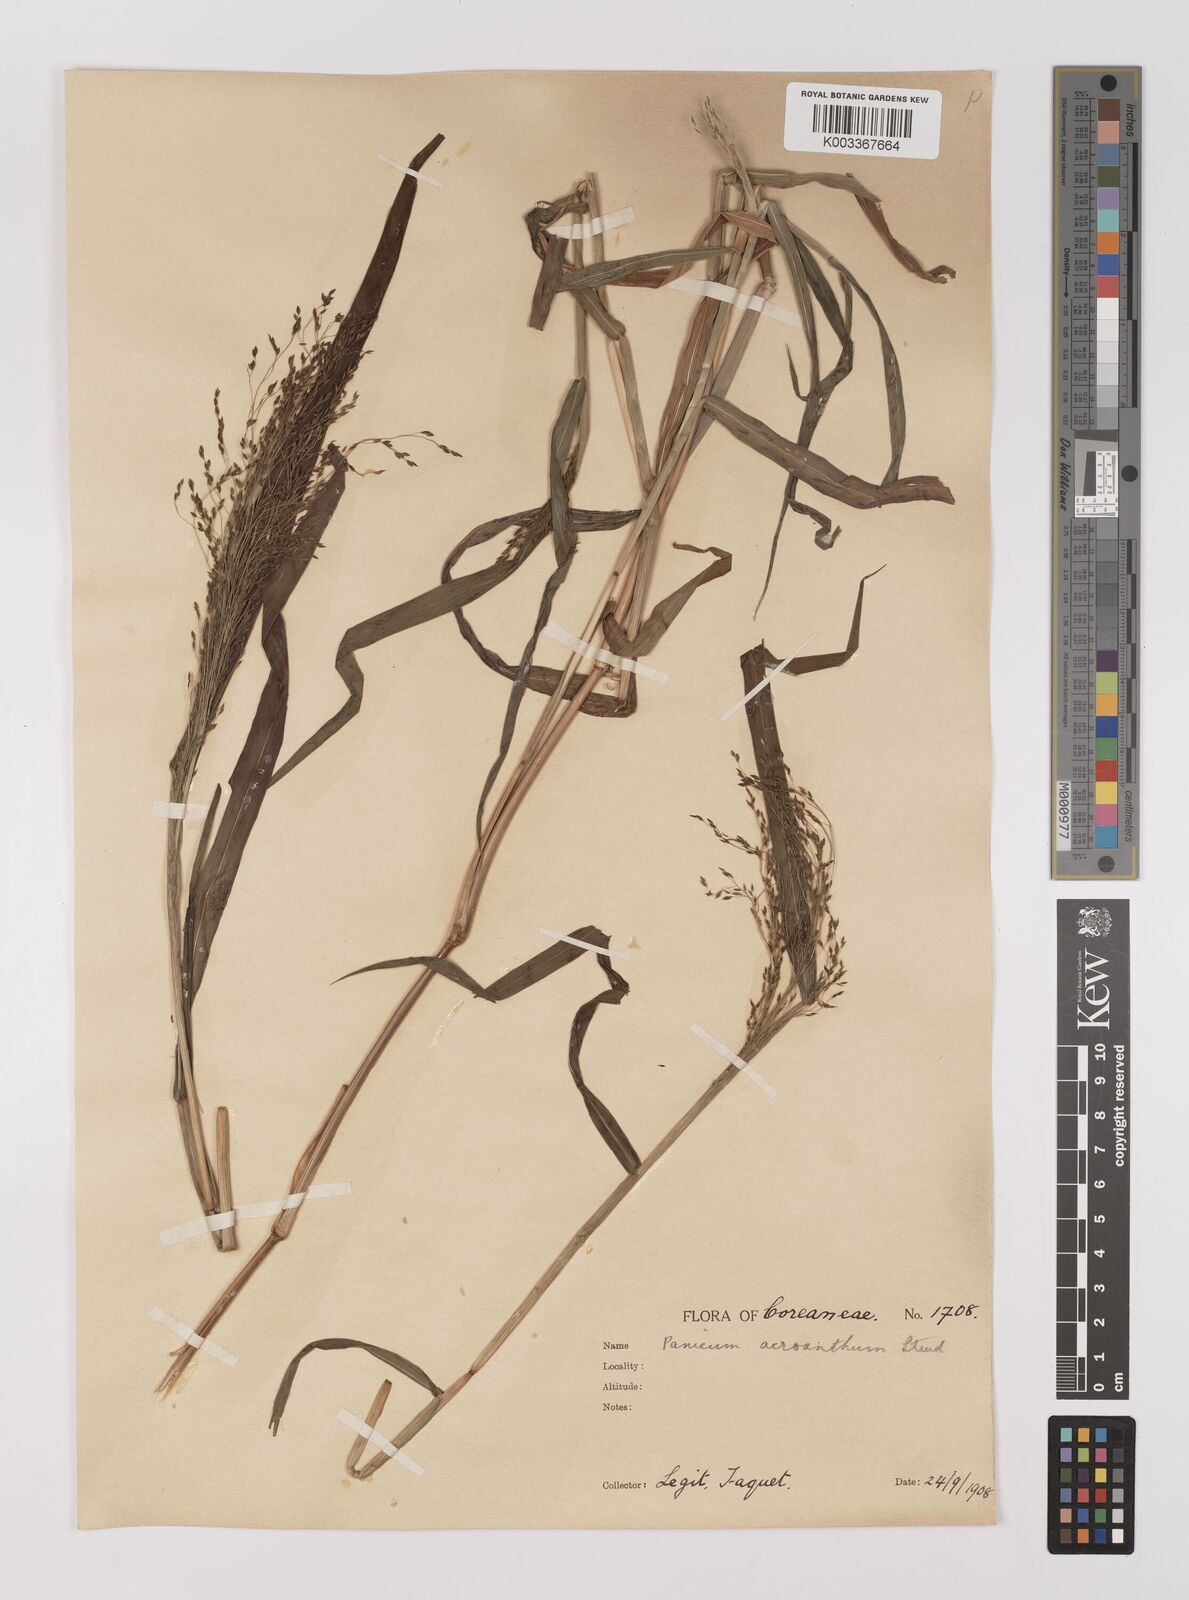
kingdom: Plantae
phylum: Tracheophyta
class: Liliopsida
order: Poales
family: Poaceae
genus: Panicum
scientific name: Panicum bisulcatum
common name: Japanese panicgrass
